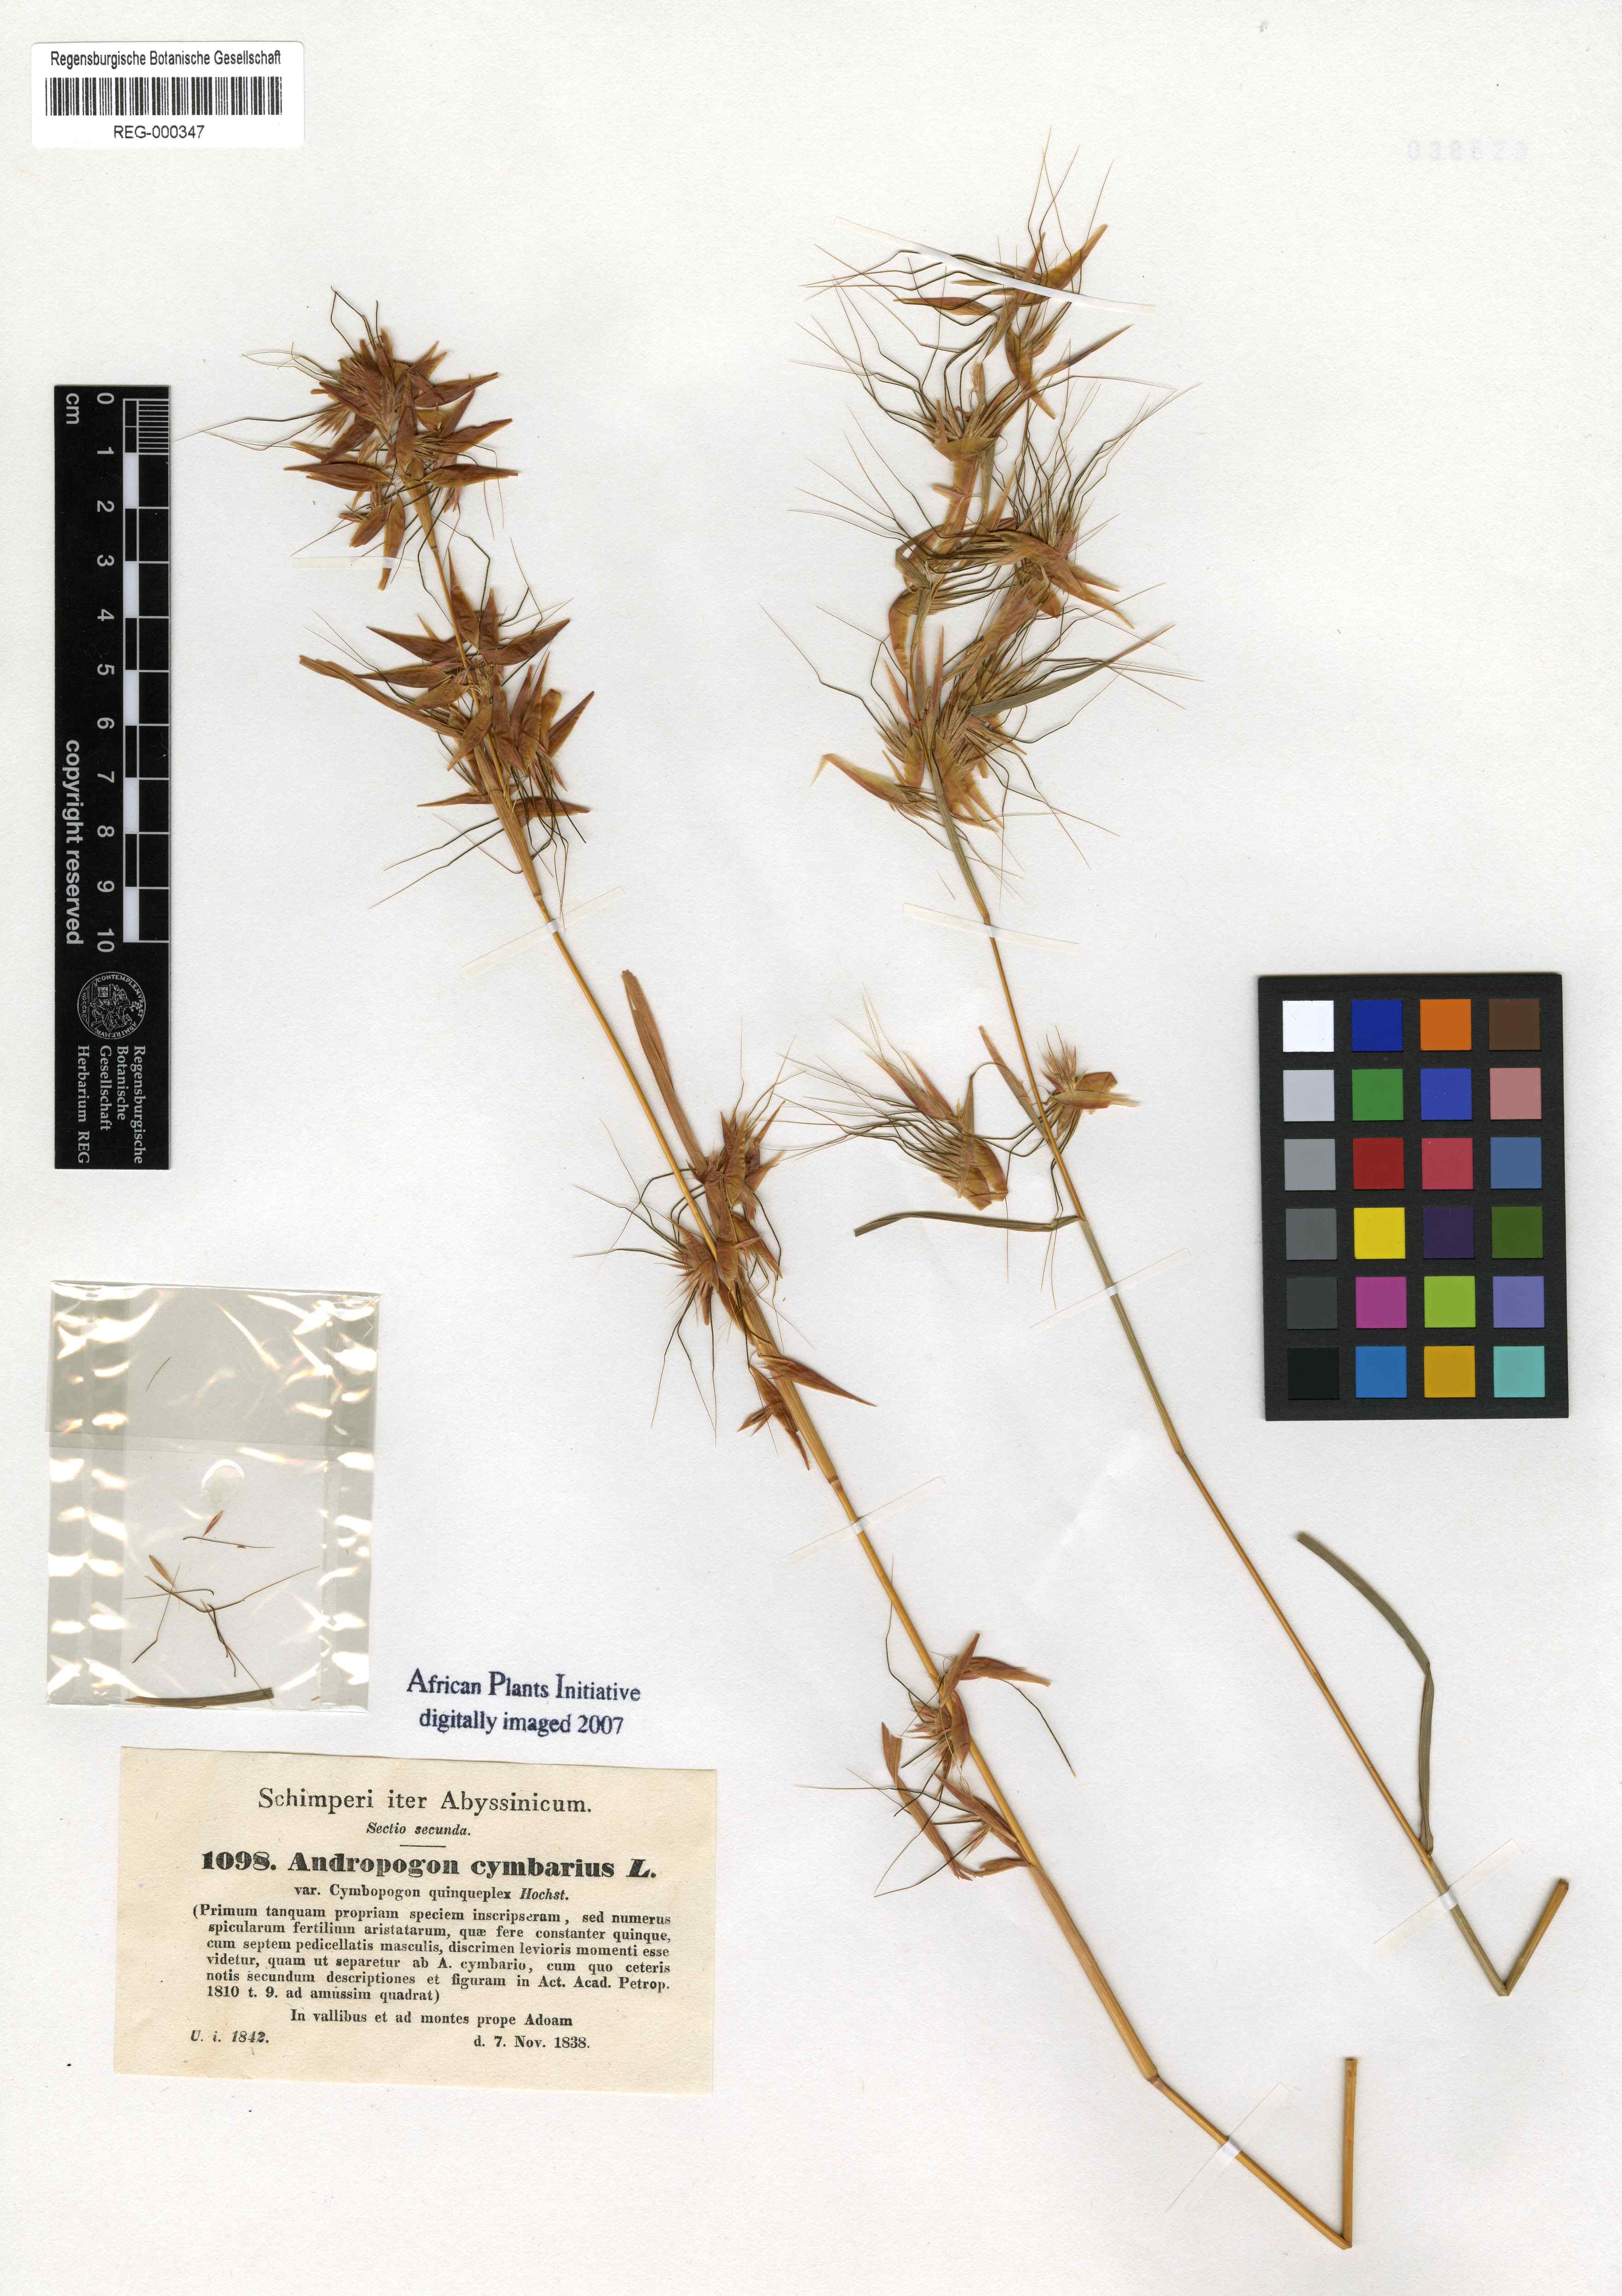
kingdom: Plantae
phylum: Tracheophyta
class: Liliopsida
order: Poales
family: Poaceae
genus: Andropogon
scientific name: Andropogon
